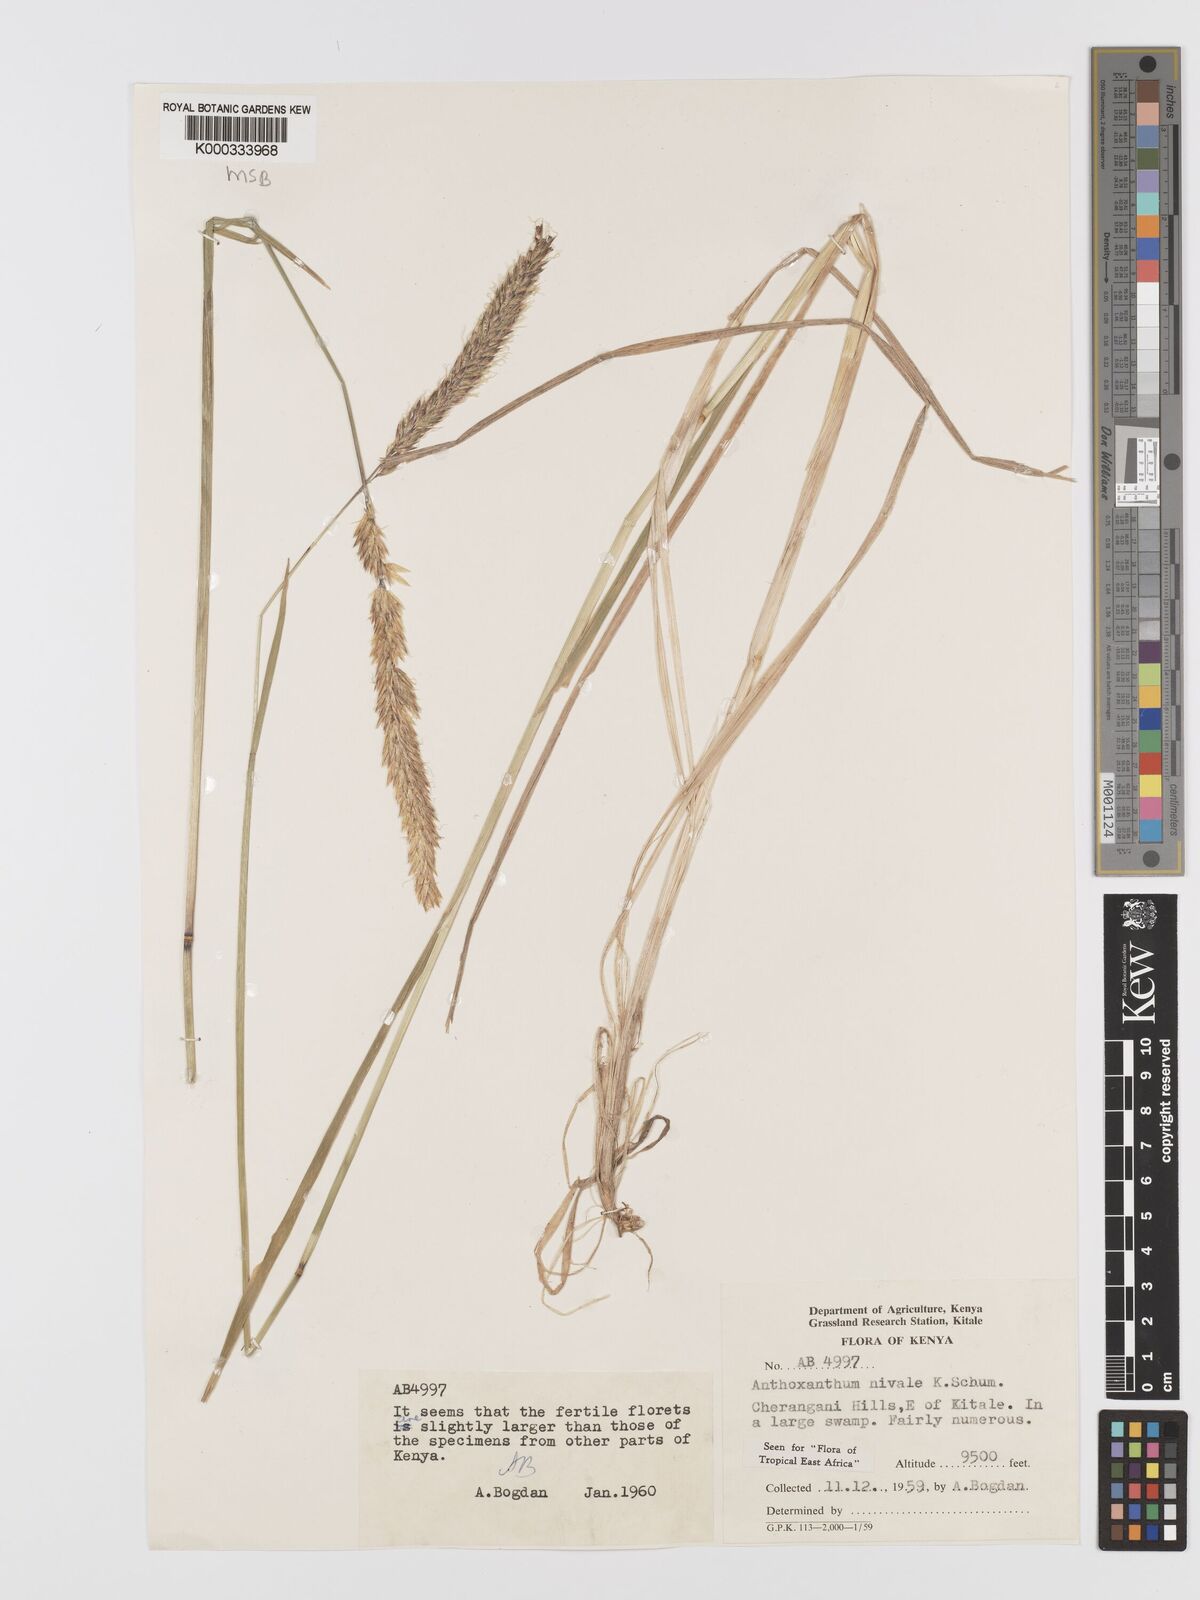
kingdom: Plantae
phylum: Tracheophyta
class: Liliopsida
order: Poales
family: Poaceae
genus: Anthoxanthum
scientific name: Anthoxanthum
